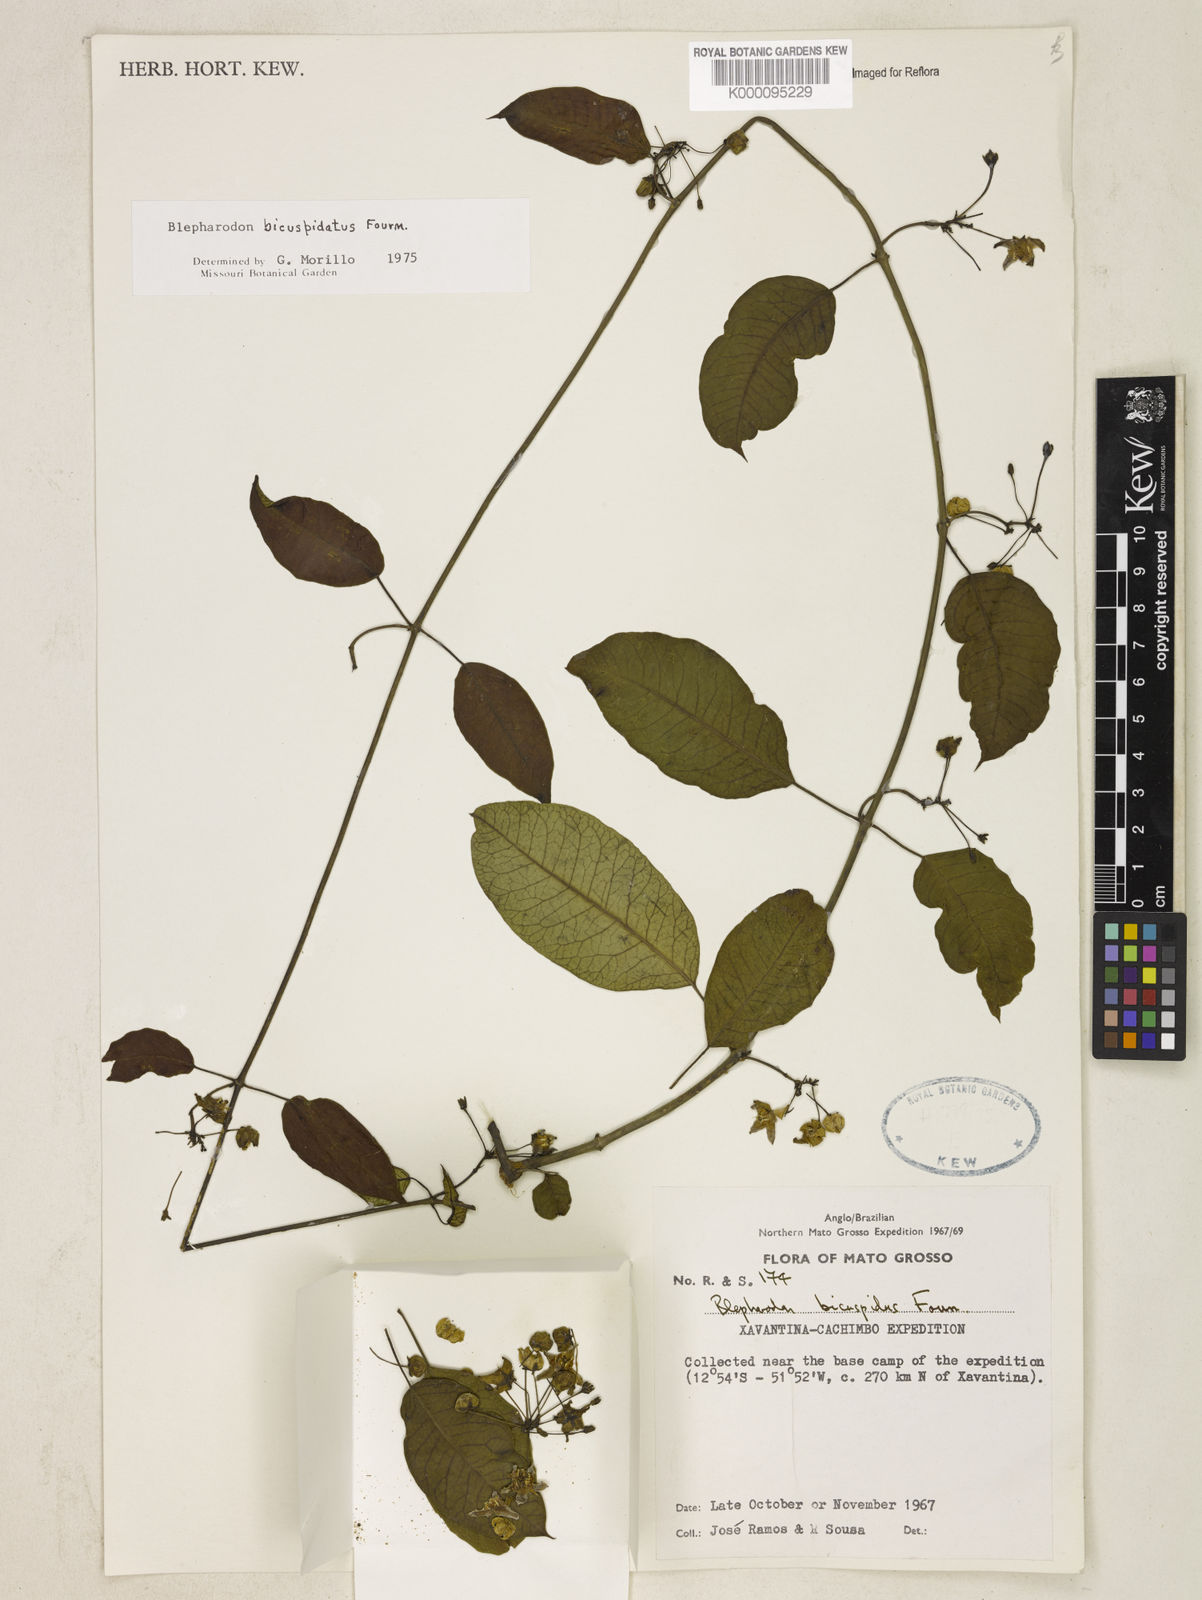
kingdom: Plantae
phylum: Tracheophyta
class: Magnoliopsida
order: Gentianales
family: Apocynaceae
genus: Blepharodon
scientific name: Blepharodon bicuspidatum
